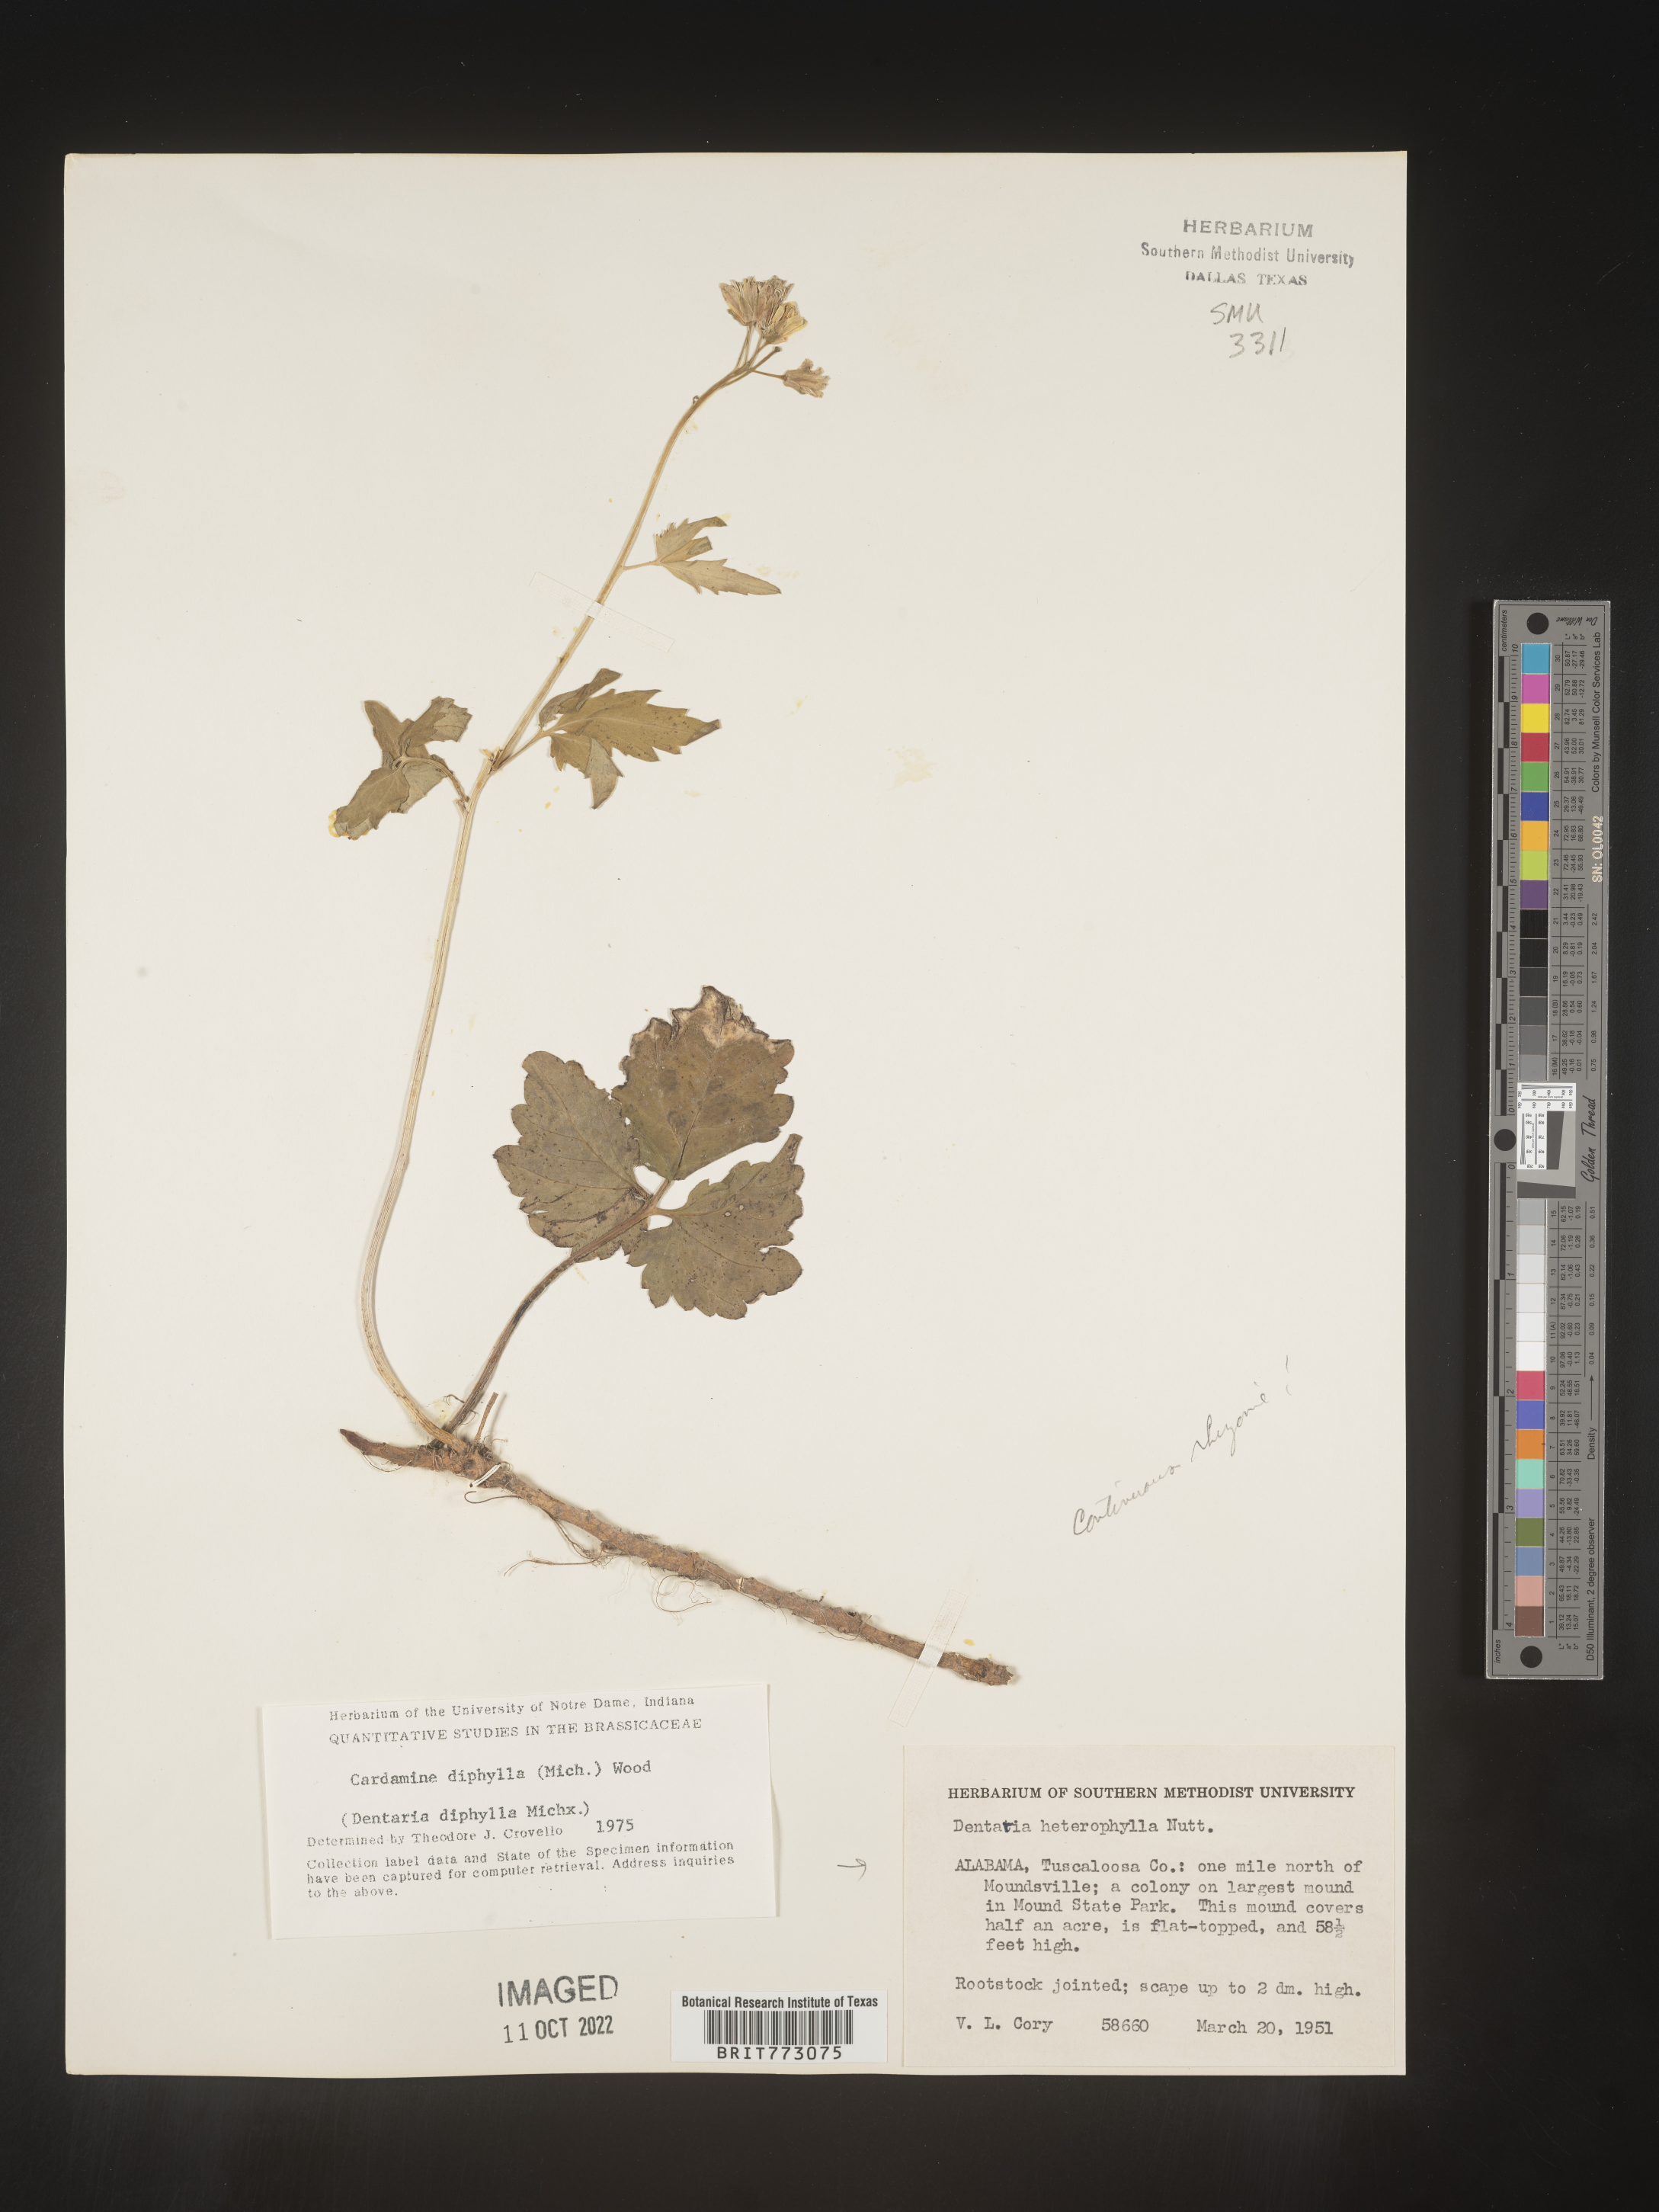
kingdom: Plantae
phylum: Tracheophyta
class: Magnoliopsida
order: Brassicales
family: Brassicaceae
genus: Cardamine
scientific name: Cardamine diphylla
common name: Broad-leaved toothwort
